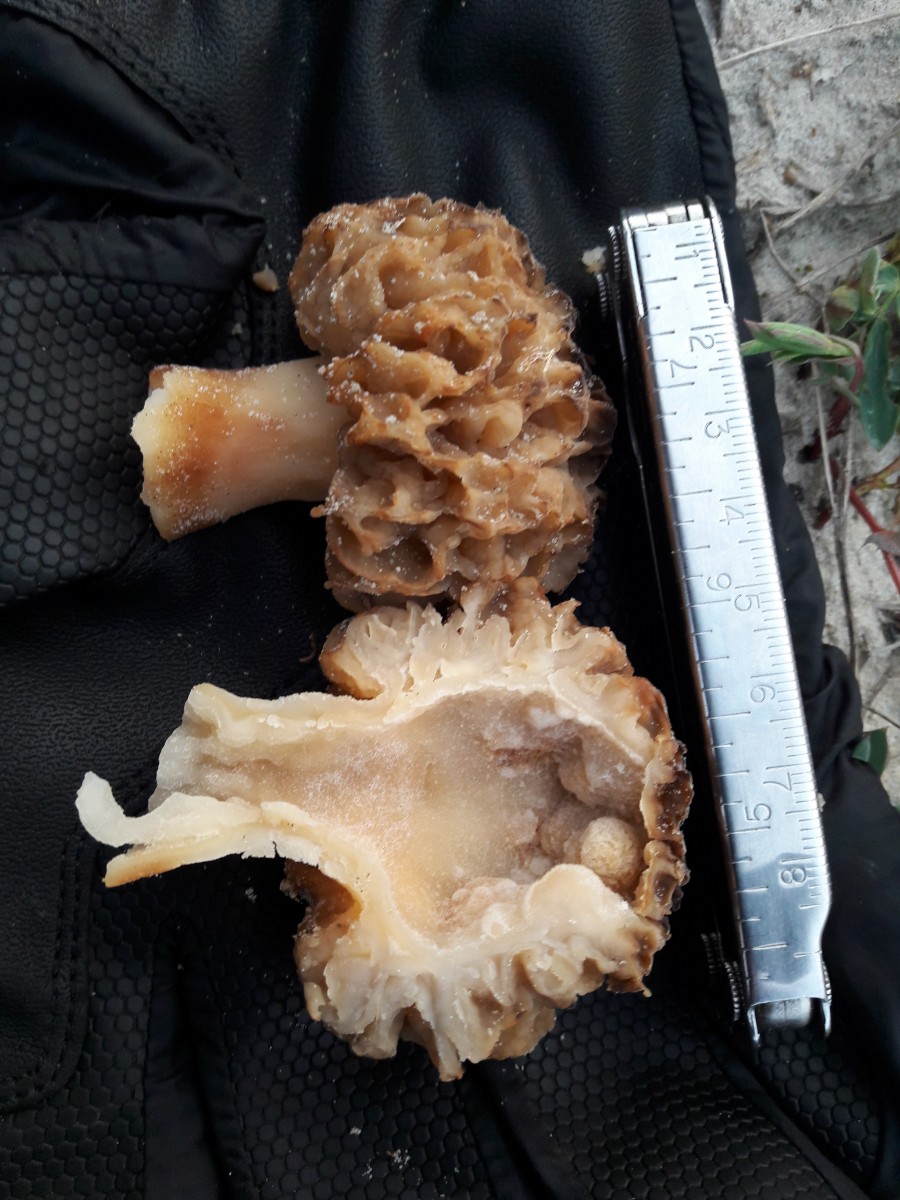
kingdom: Fungi
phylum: Ascomycota
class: Pezizomycetes
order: Pezizales
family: Morchellaceae
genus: Morchella
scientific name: Morchella esculenta
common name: almindelig morkel
